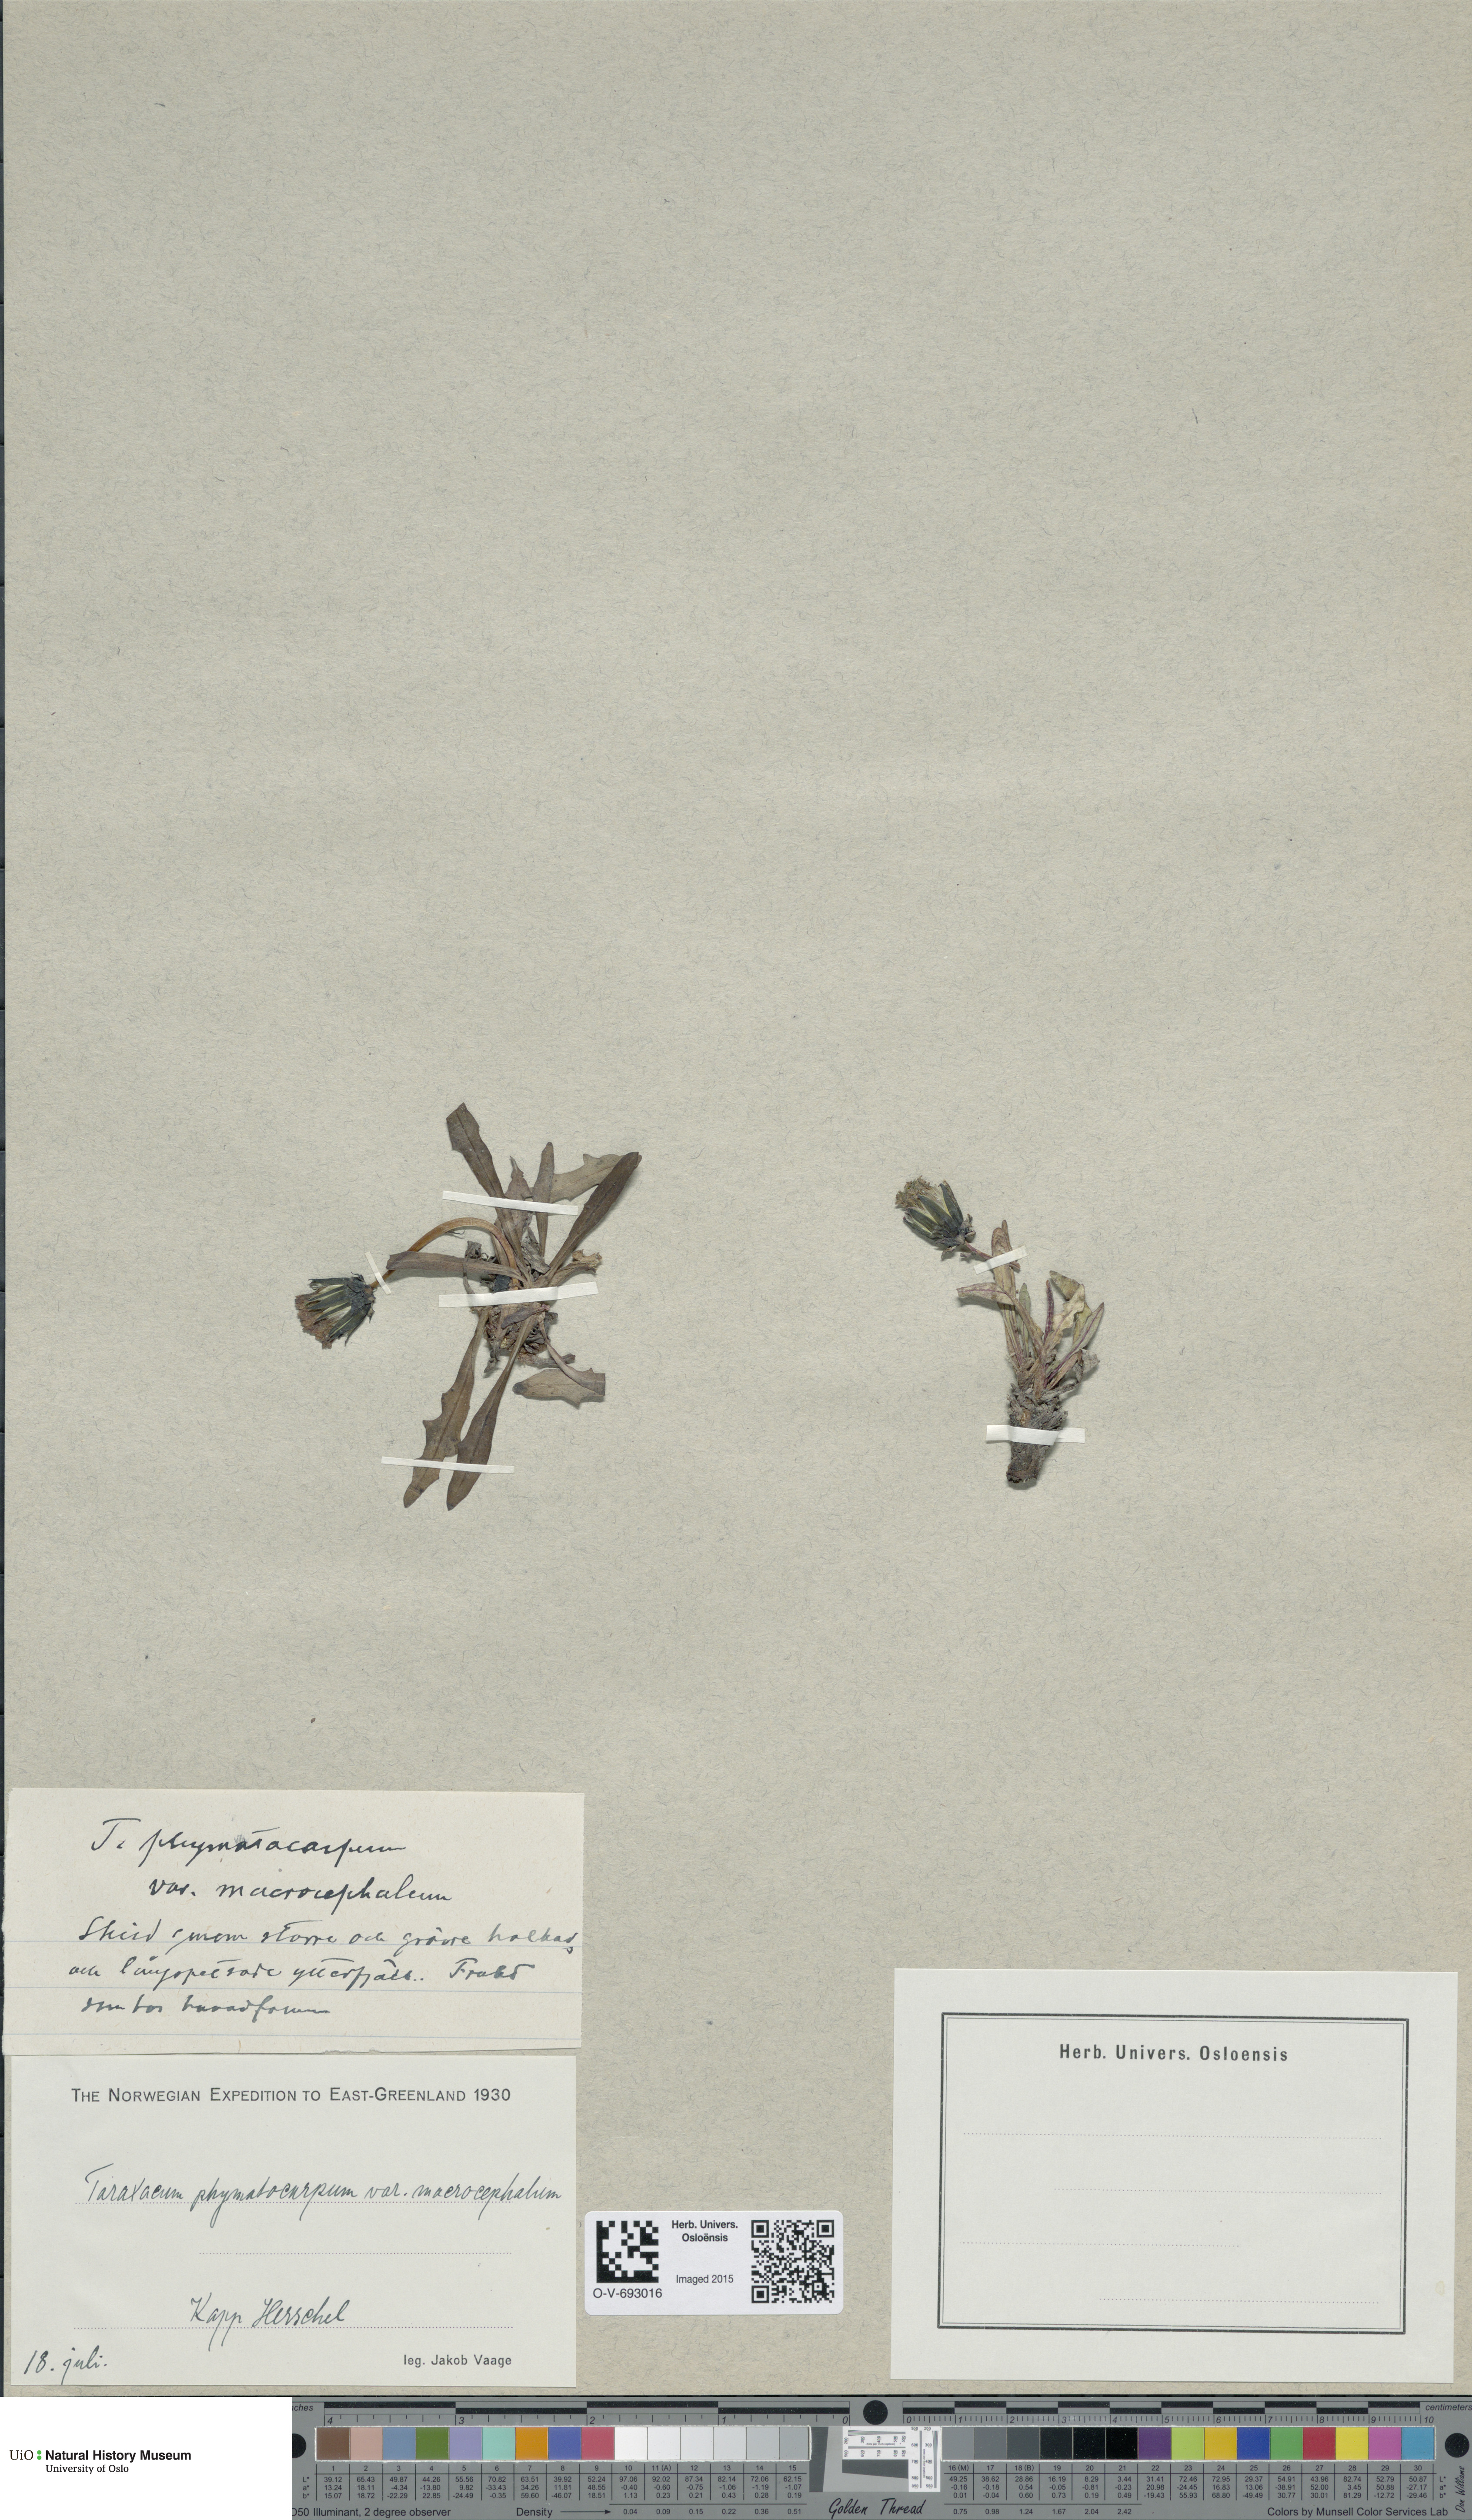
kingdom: Plantae
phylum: Tracheophyta
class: Magnoliopsida
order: Asterales
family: Asteraceae
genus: Taraxacum
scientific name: Taraxacum phymatocarpum
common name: Harp dandelion
